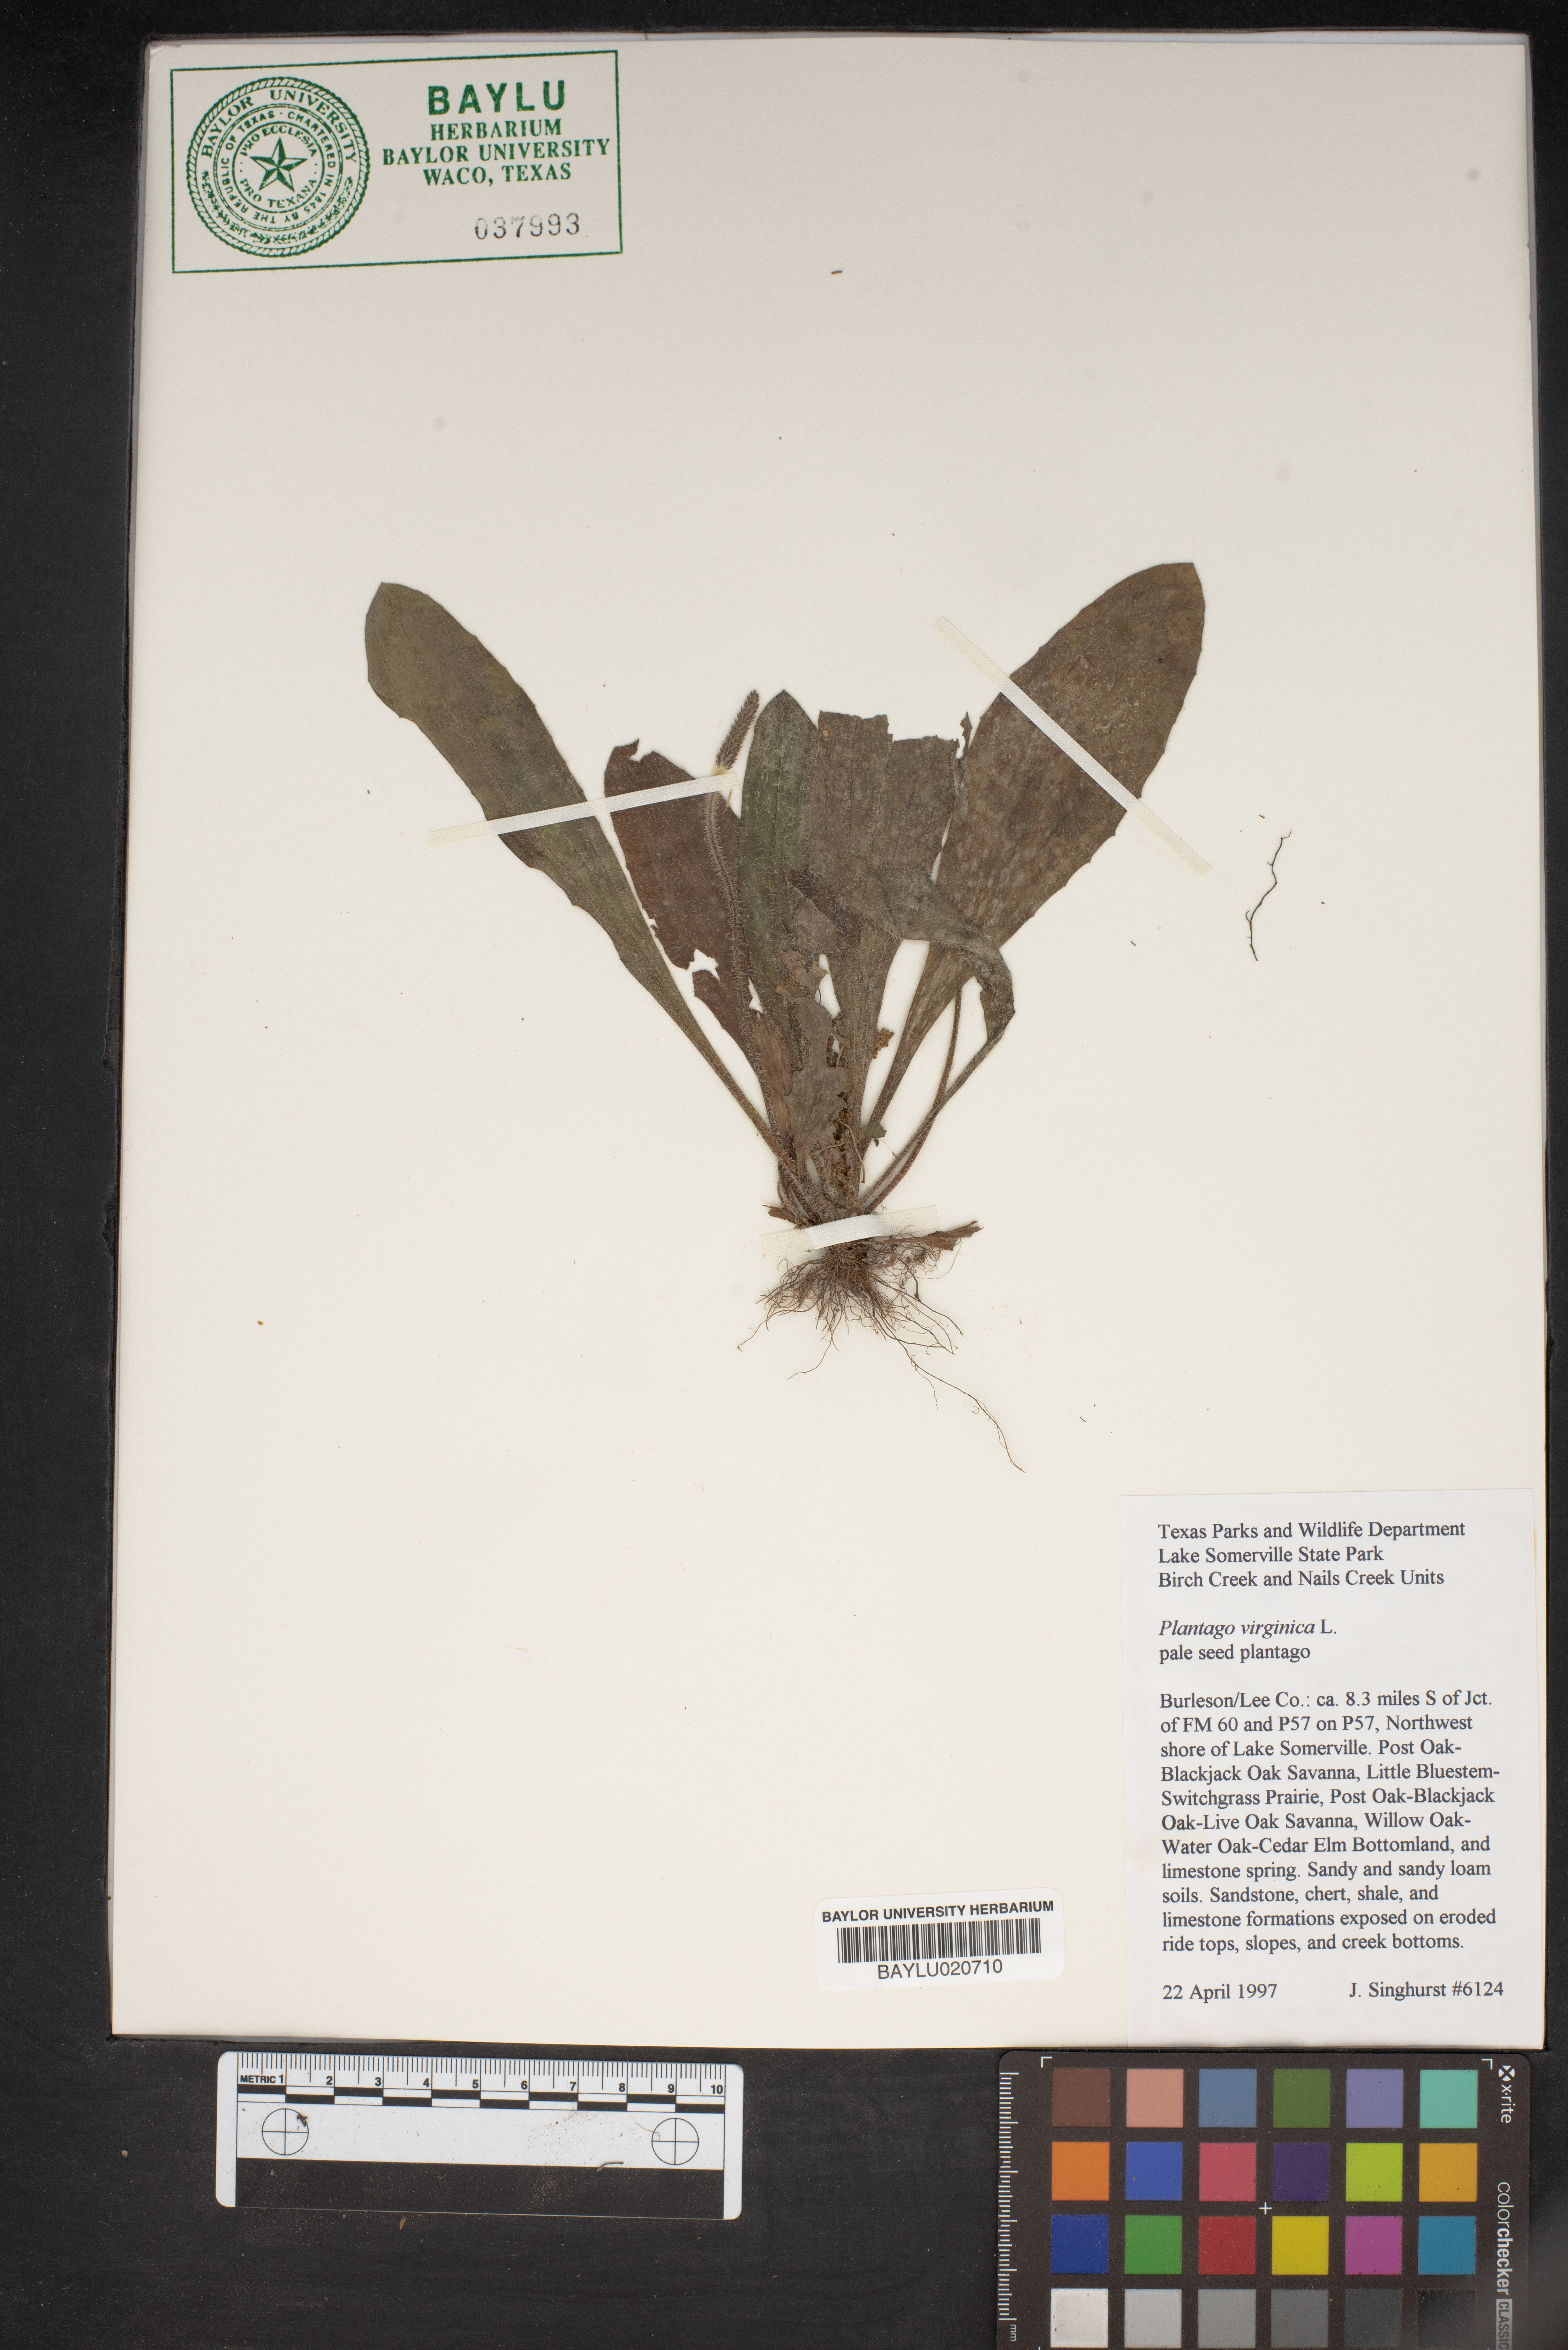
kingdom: Plantae
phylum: Tracheophyta
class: Magnoliopsida
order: Lamiales
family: Plantaginaceae
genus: Plantago
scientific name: Plantago virginica
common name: Hoary plantain
